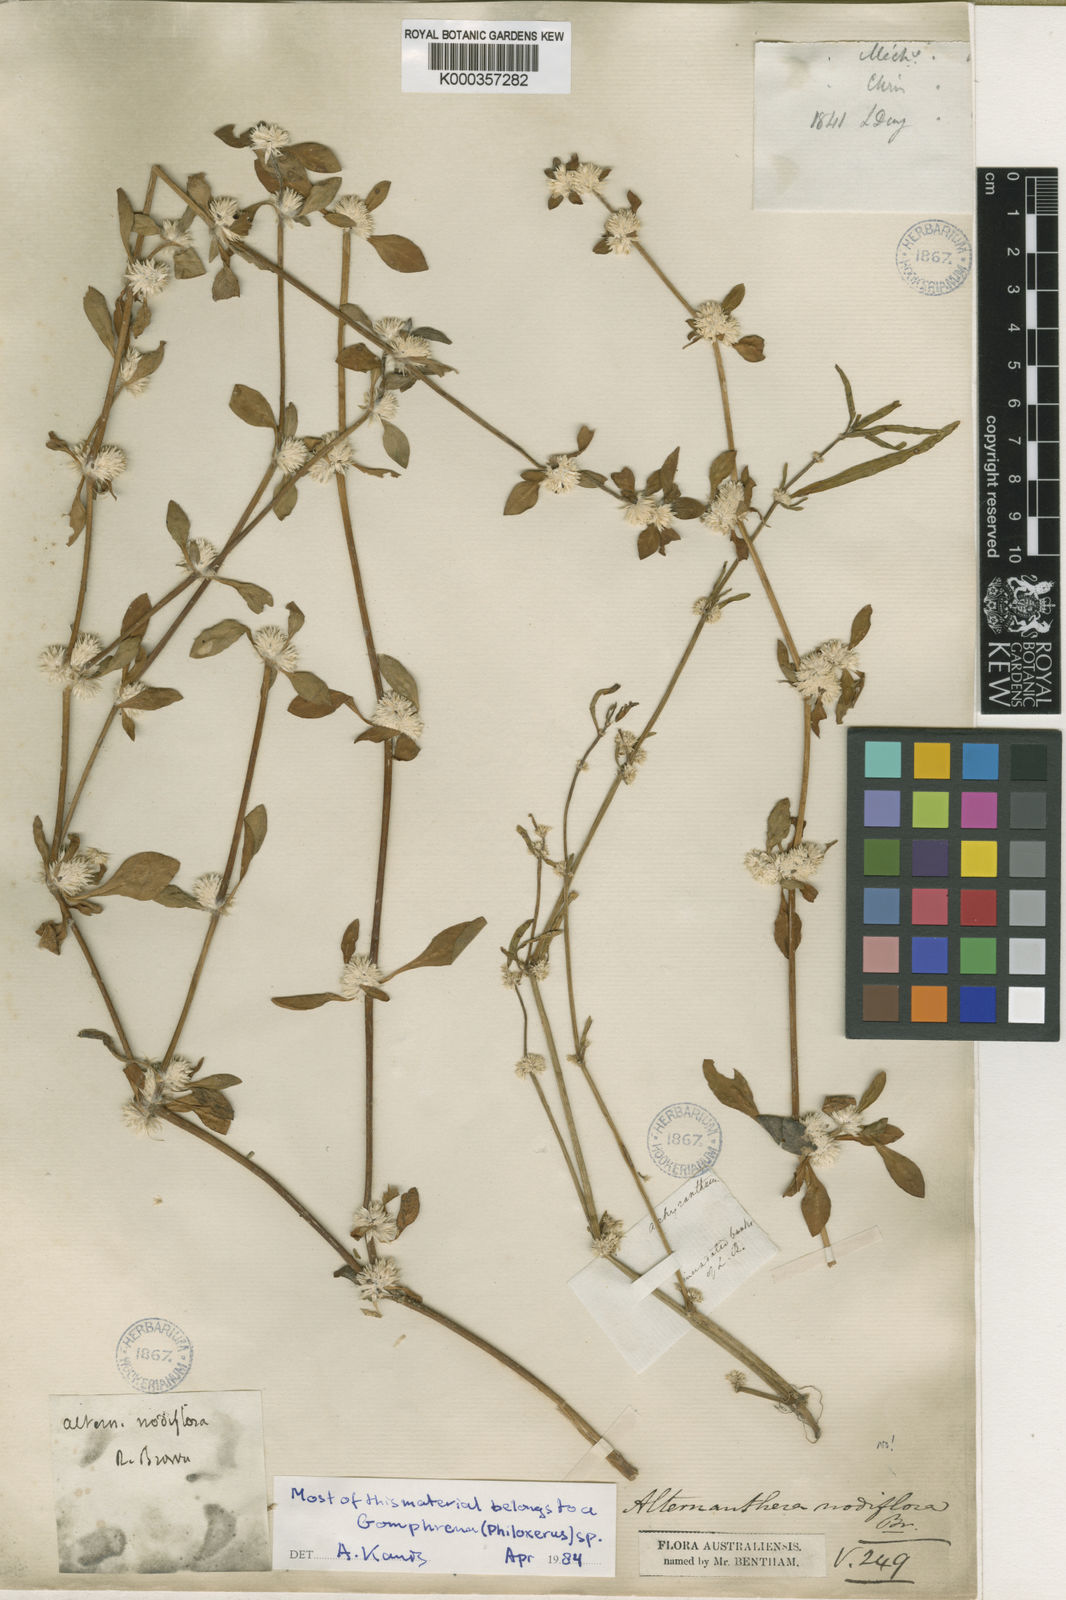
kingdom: Plantae
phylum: Tracheophyta
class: Magnoliopsida
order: Caryophyllales
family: Amaranthaceae
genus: Alternanthera
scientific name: Alternanthera sessilis
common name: Sessile joyweed
